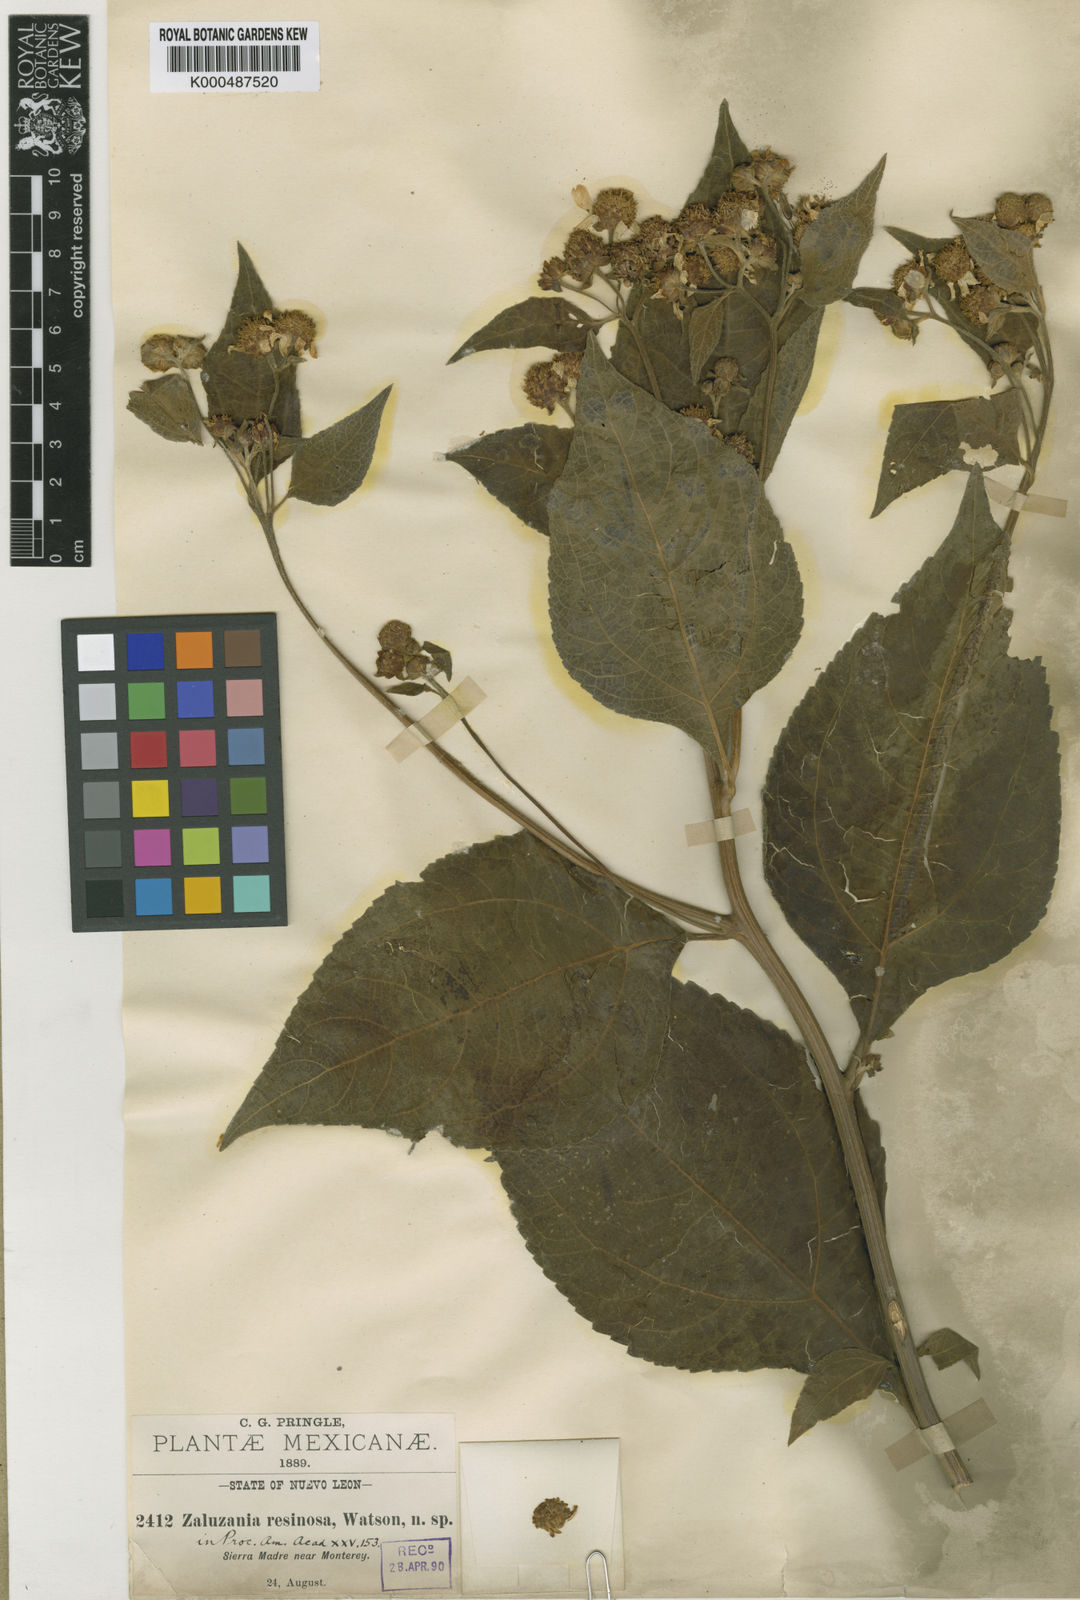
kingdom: Plantae
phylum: Tracheophyta
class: Magnoliopsida
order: Asterales
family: Asteraceae
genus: Greenmaniella
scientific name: Greenmaniella resinosa
